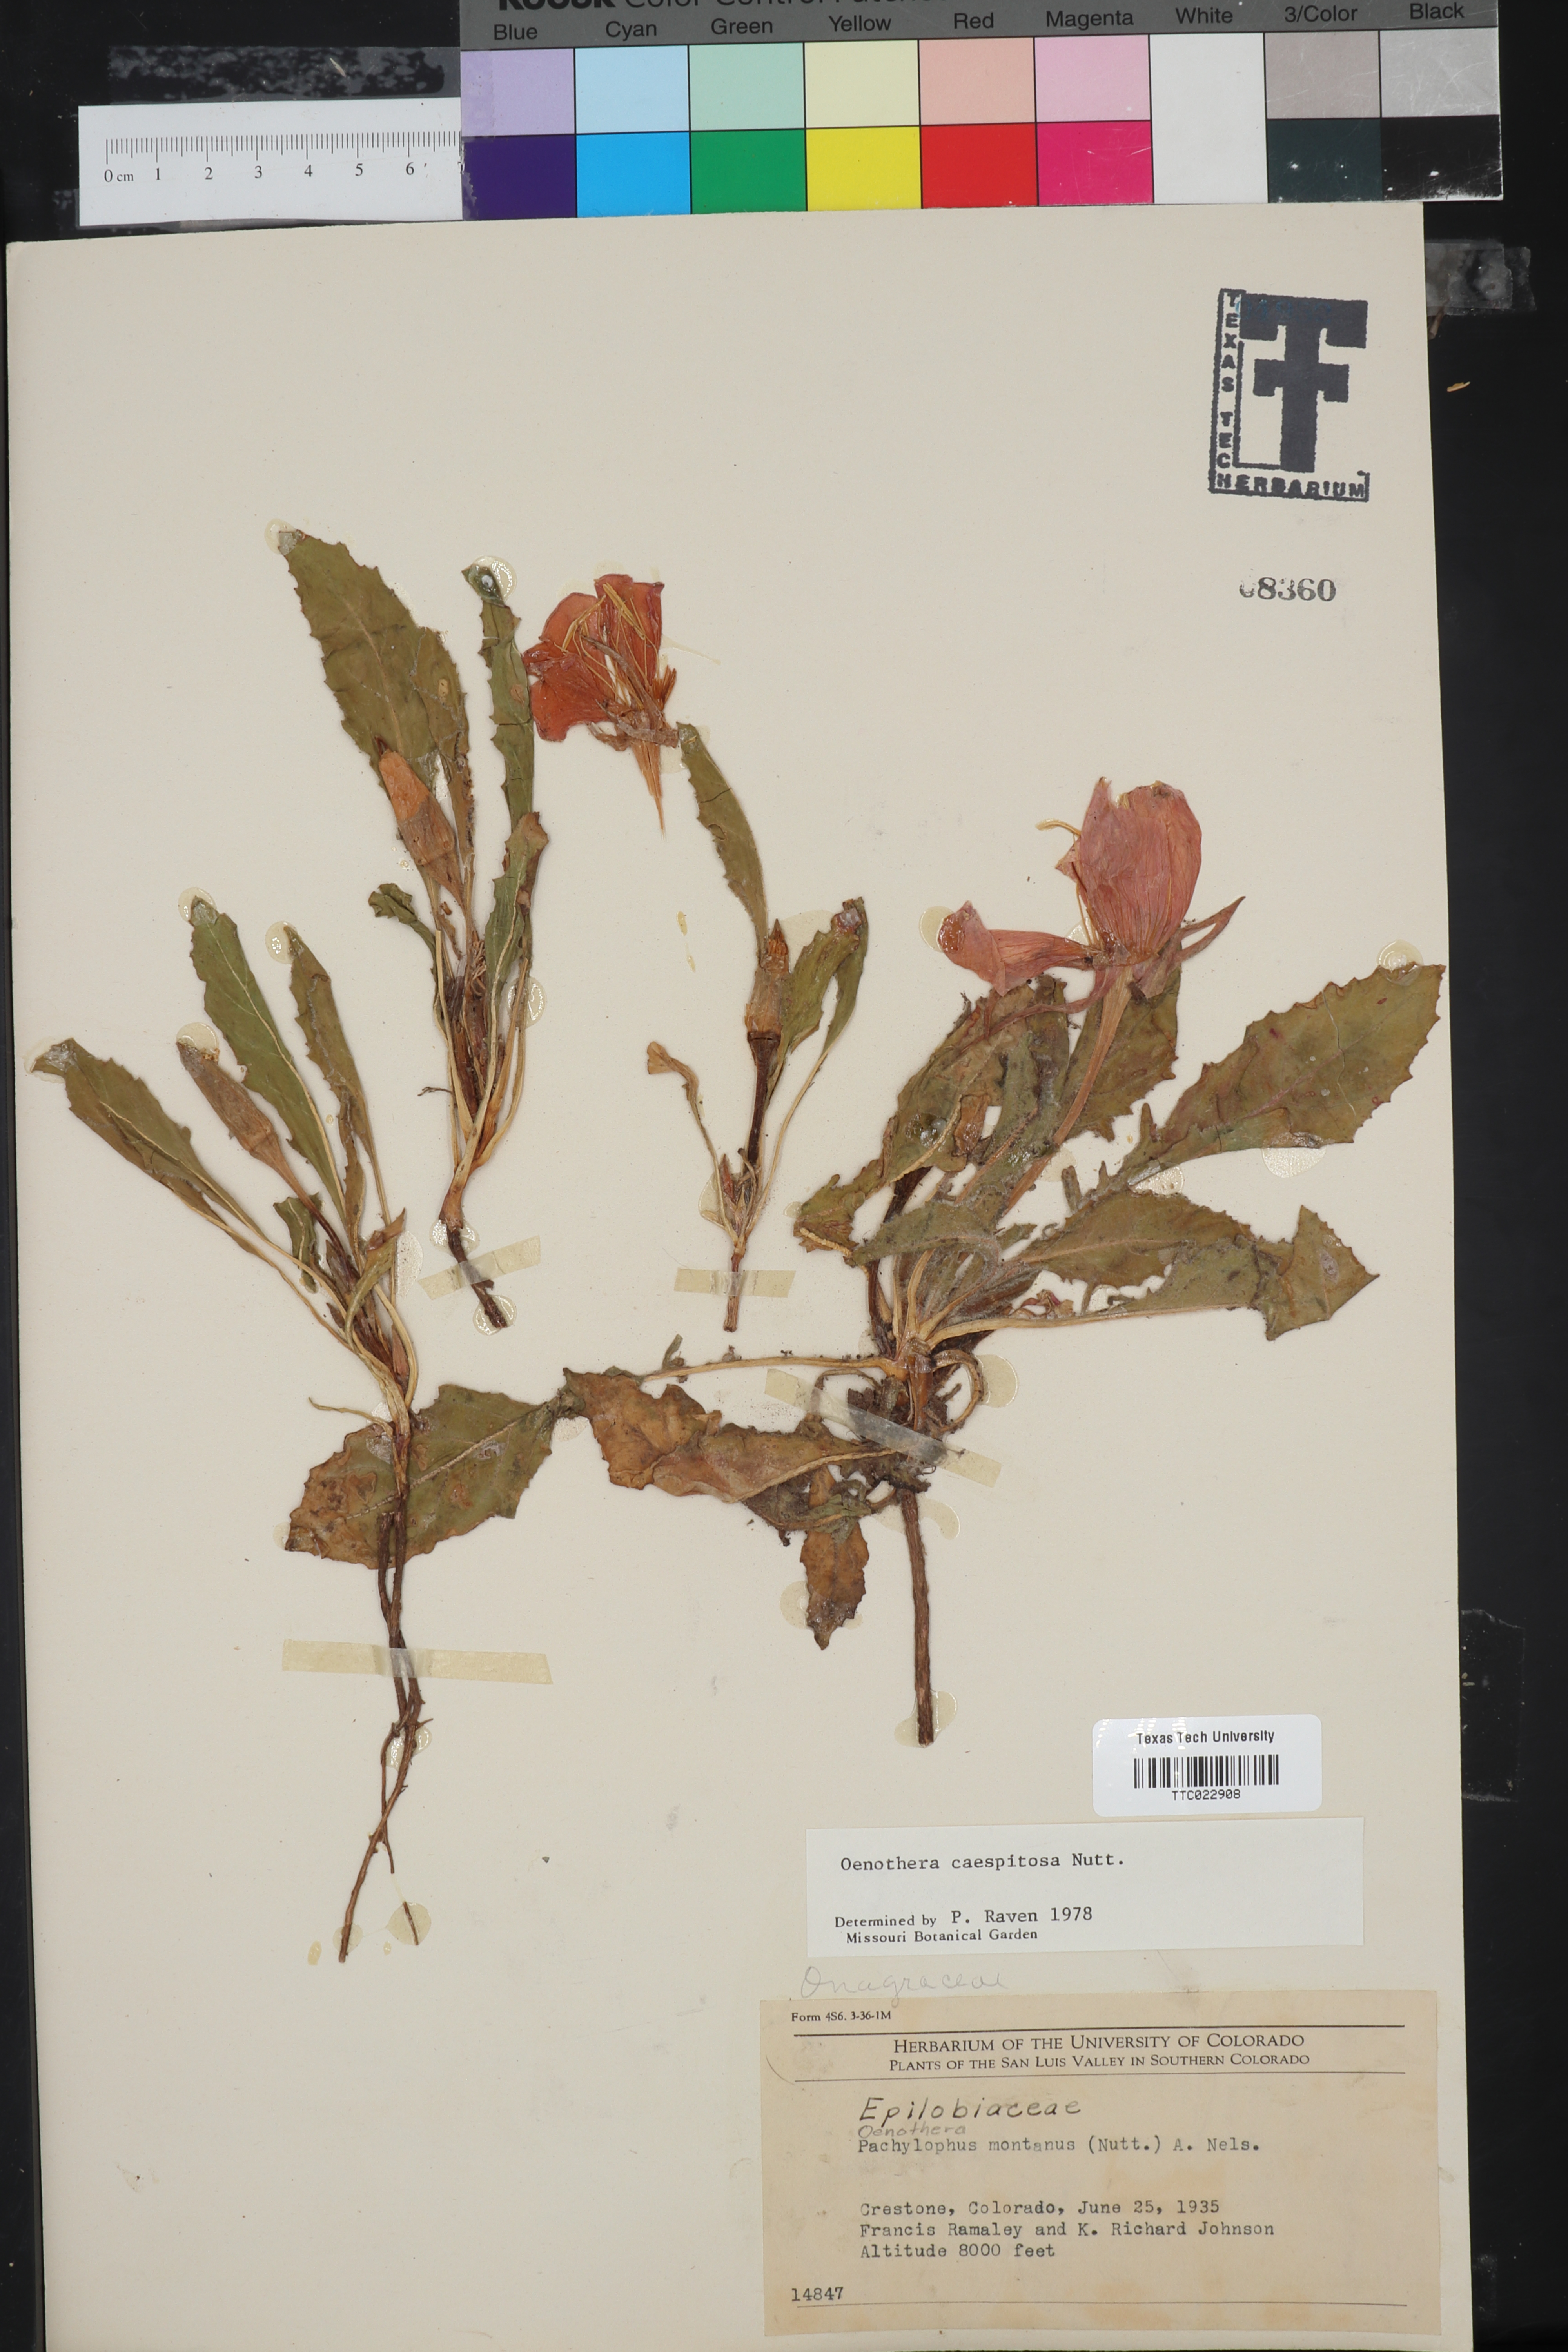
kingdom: Plantae
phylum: Tracheophyta
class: Magnoliopsida
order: Myrtales
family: Onagraceae
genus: Oenothera
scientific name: Oenothera cespitosa
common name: Tufted evening-primrose
